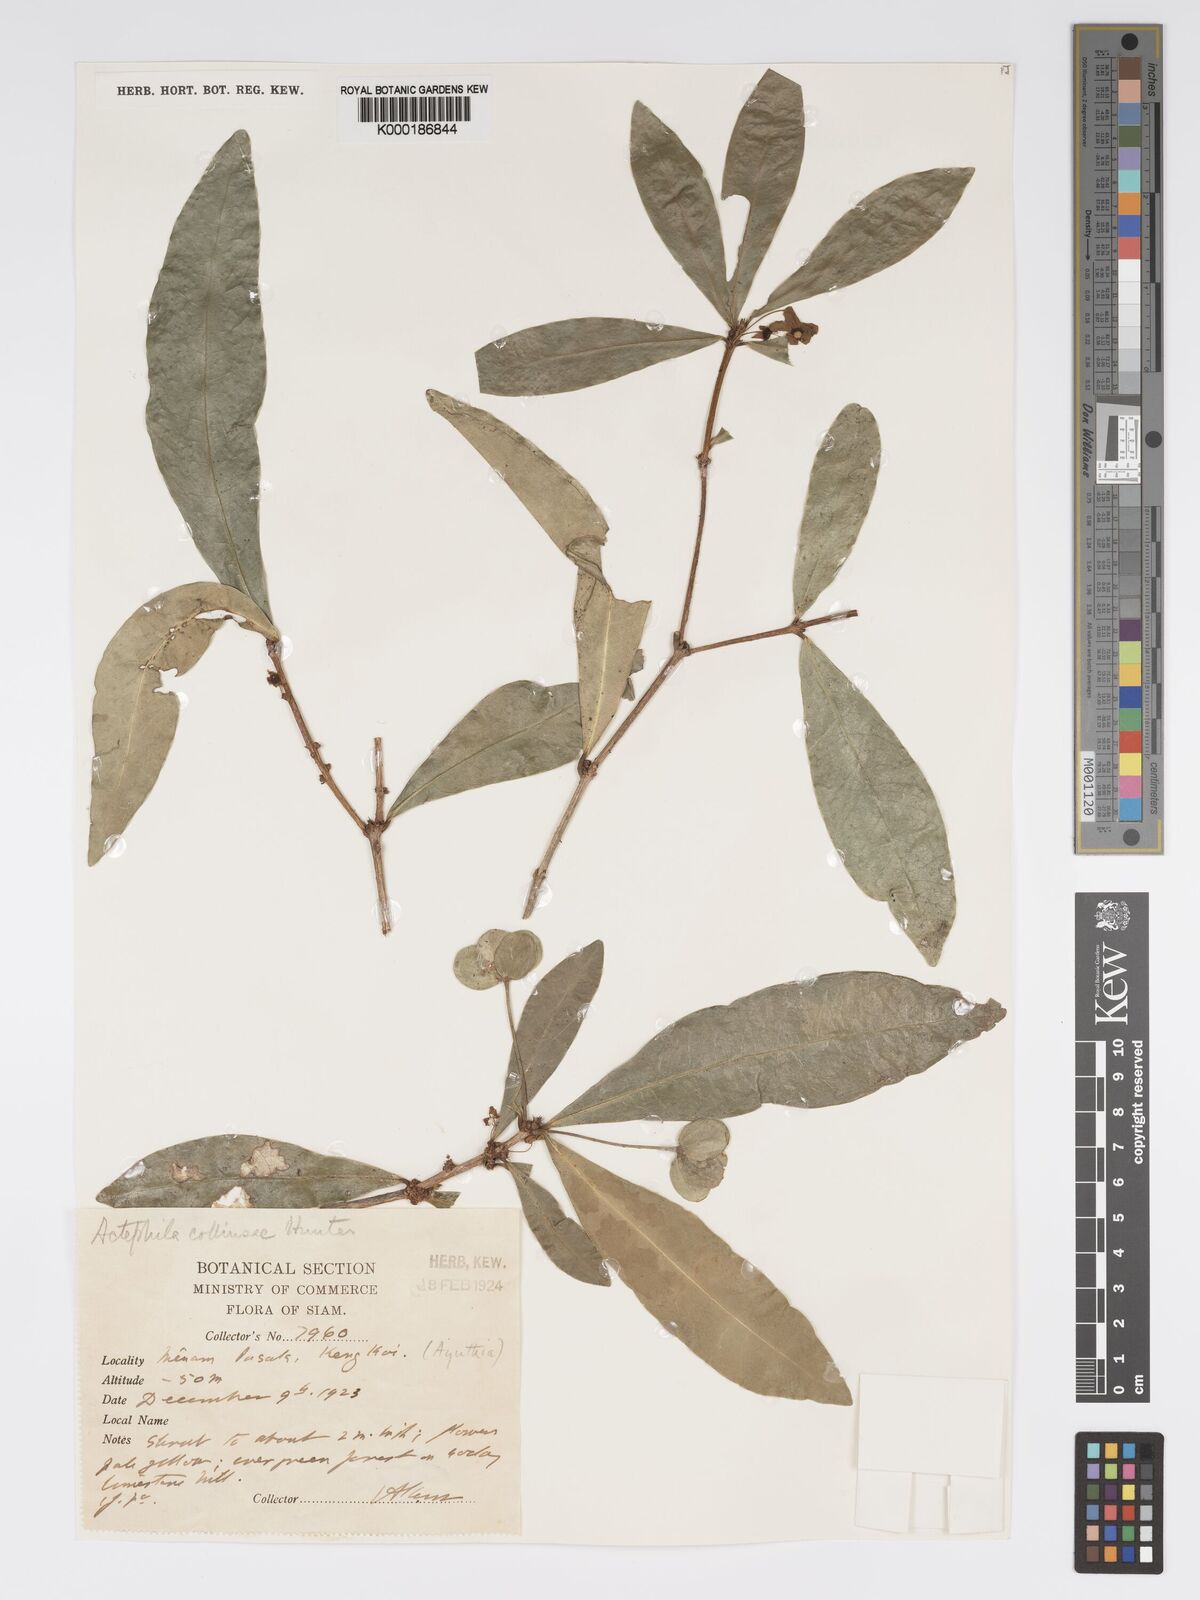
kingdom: Plantae
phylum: Tracheophyta
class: Magnoliopsida
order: Malpighiales
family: Phyllanthaceae
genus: Actephila
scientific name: Actephila collinsiae
